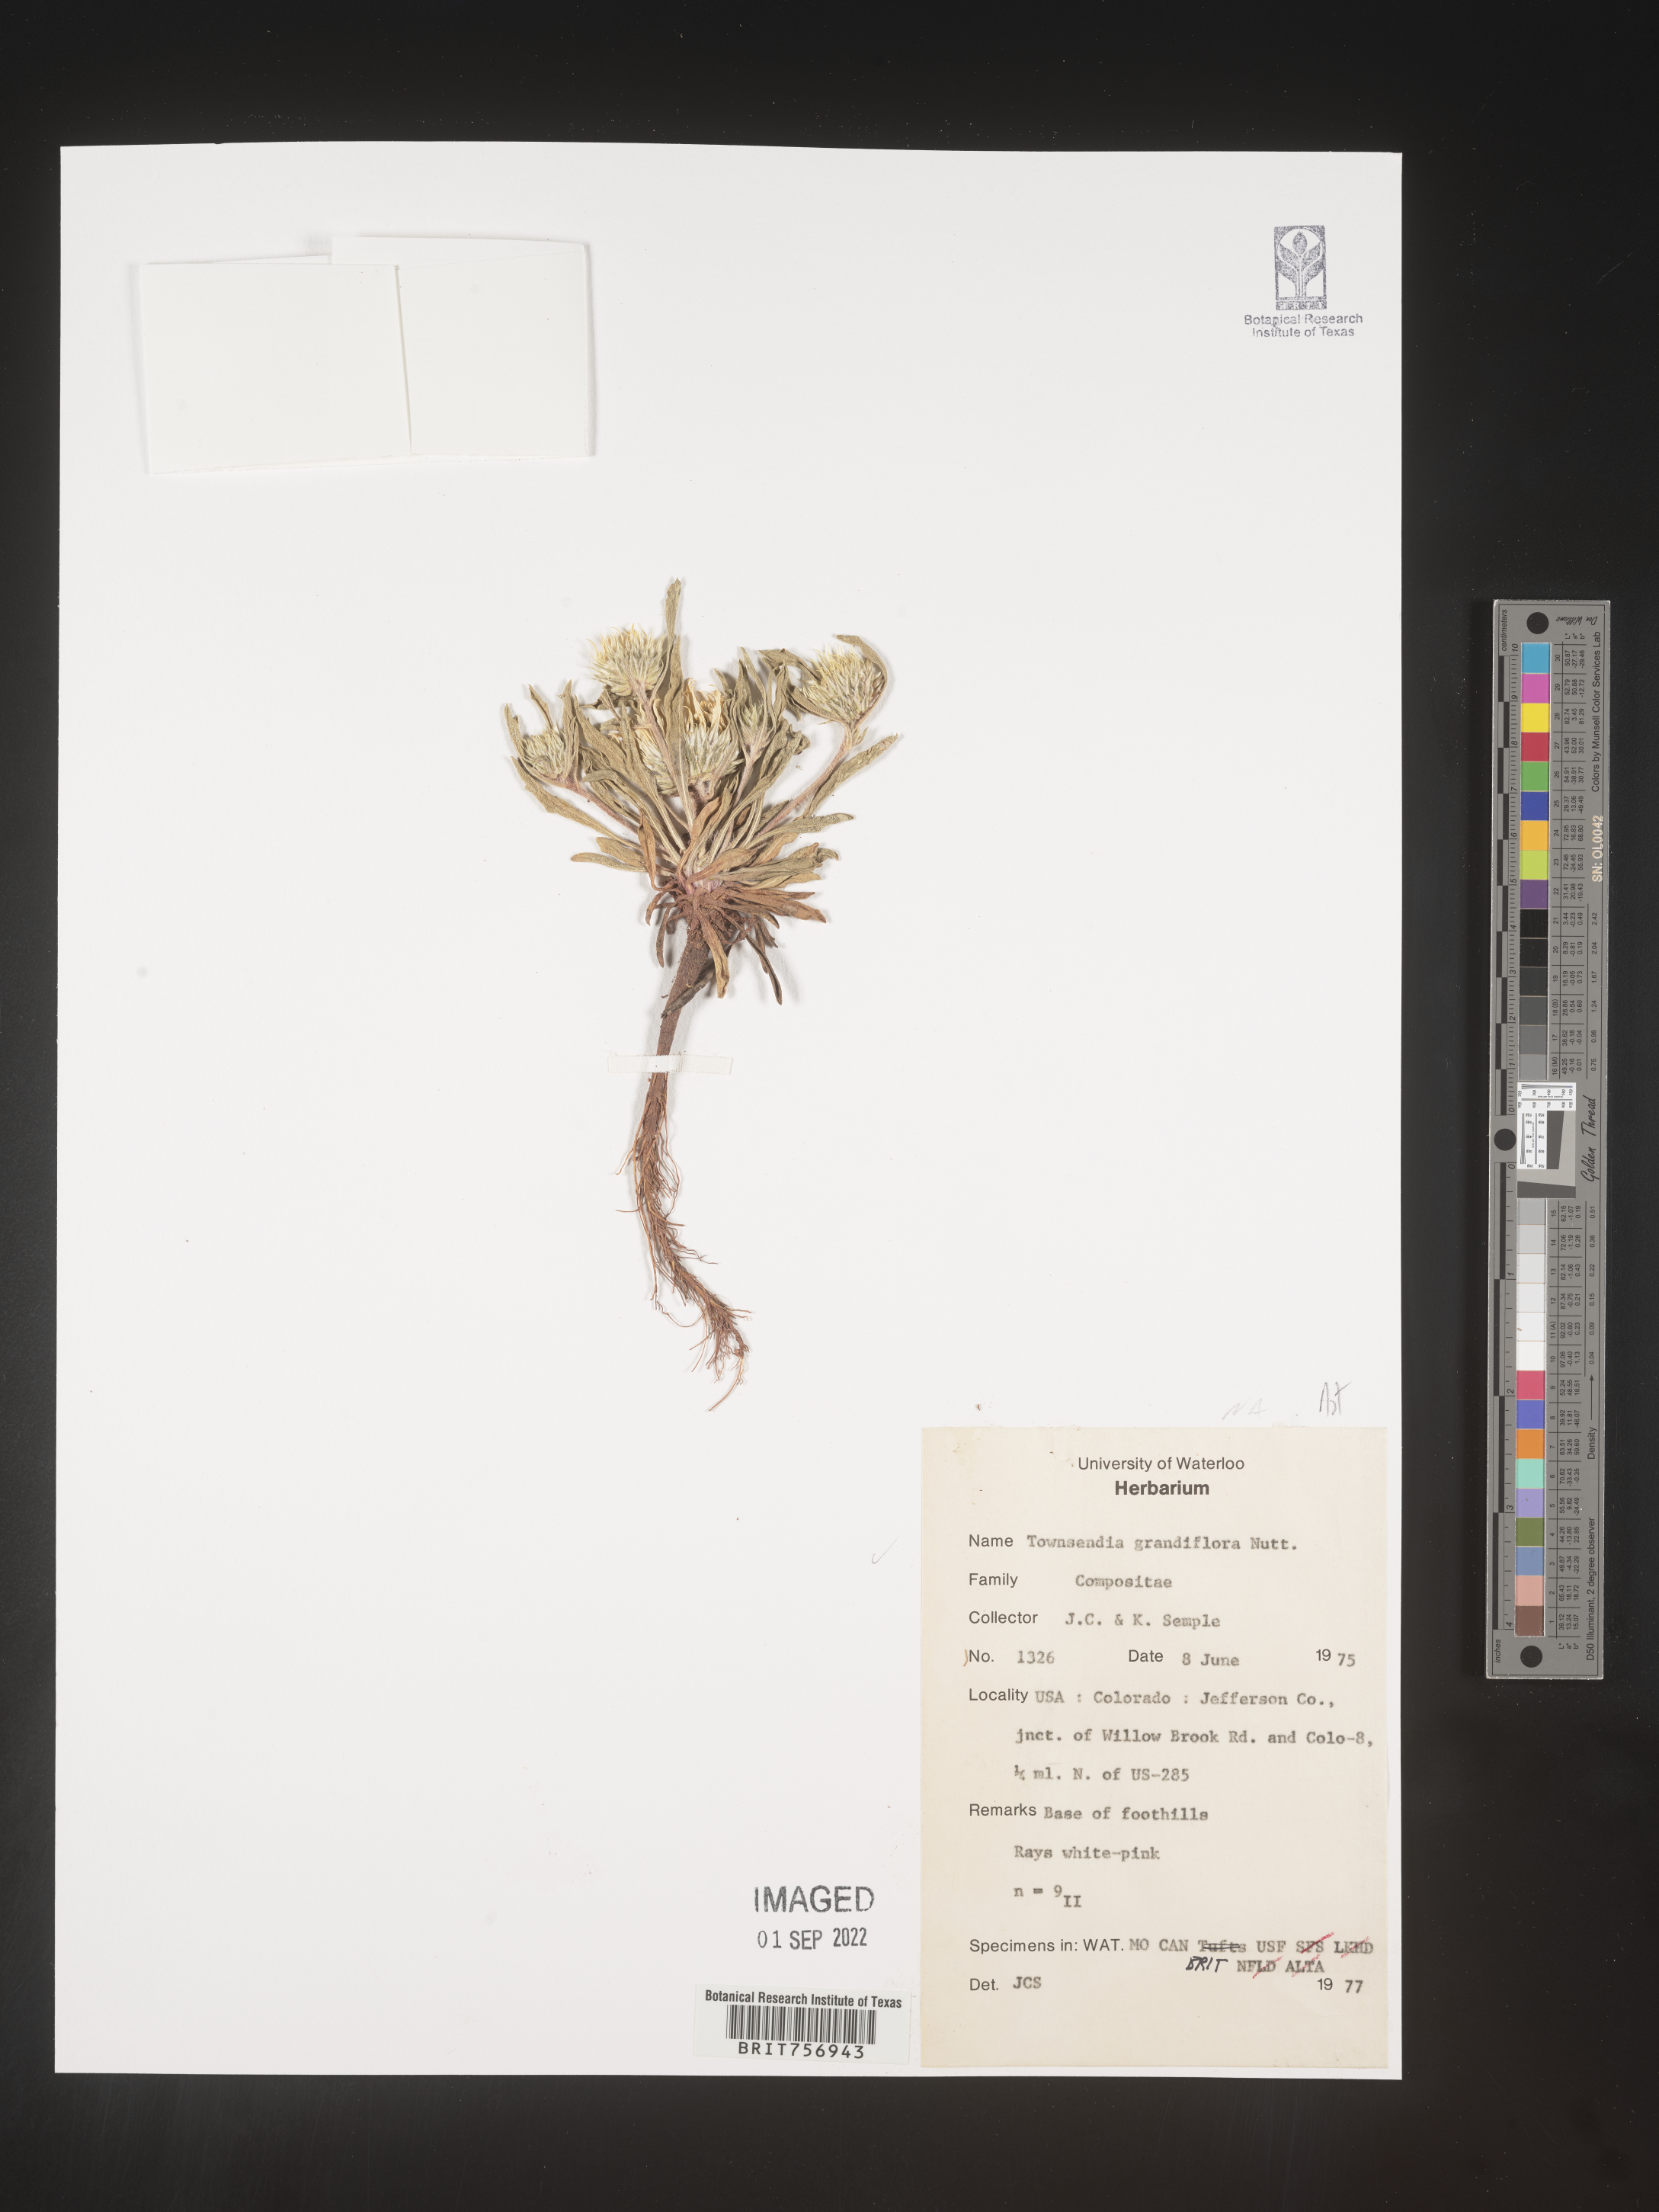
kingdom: Plantae
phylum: Tracheophyta
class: Magnoliopsida
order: Asterales
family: Asteraceae
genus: Townsendia
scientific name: Townsendia grandiflora
